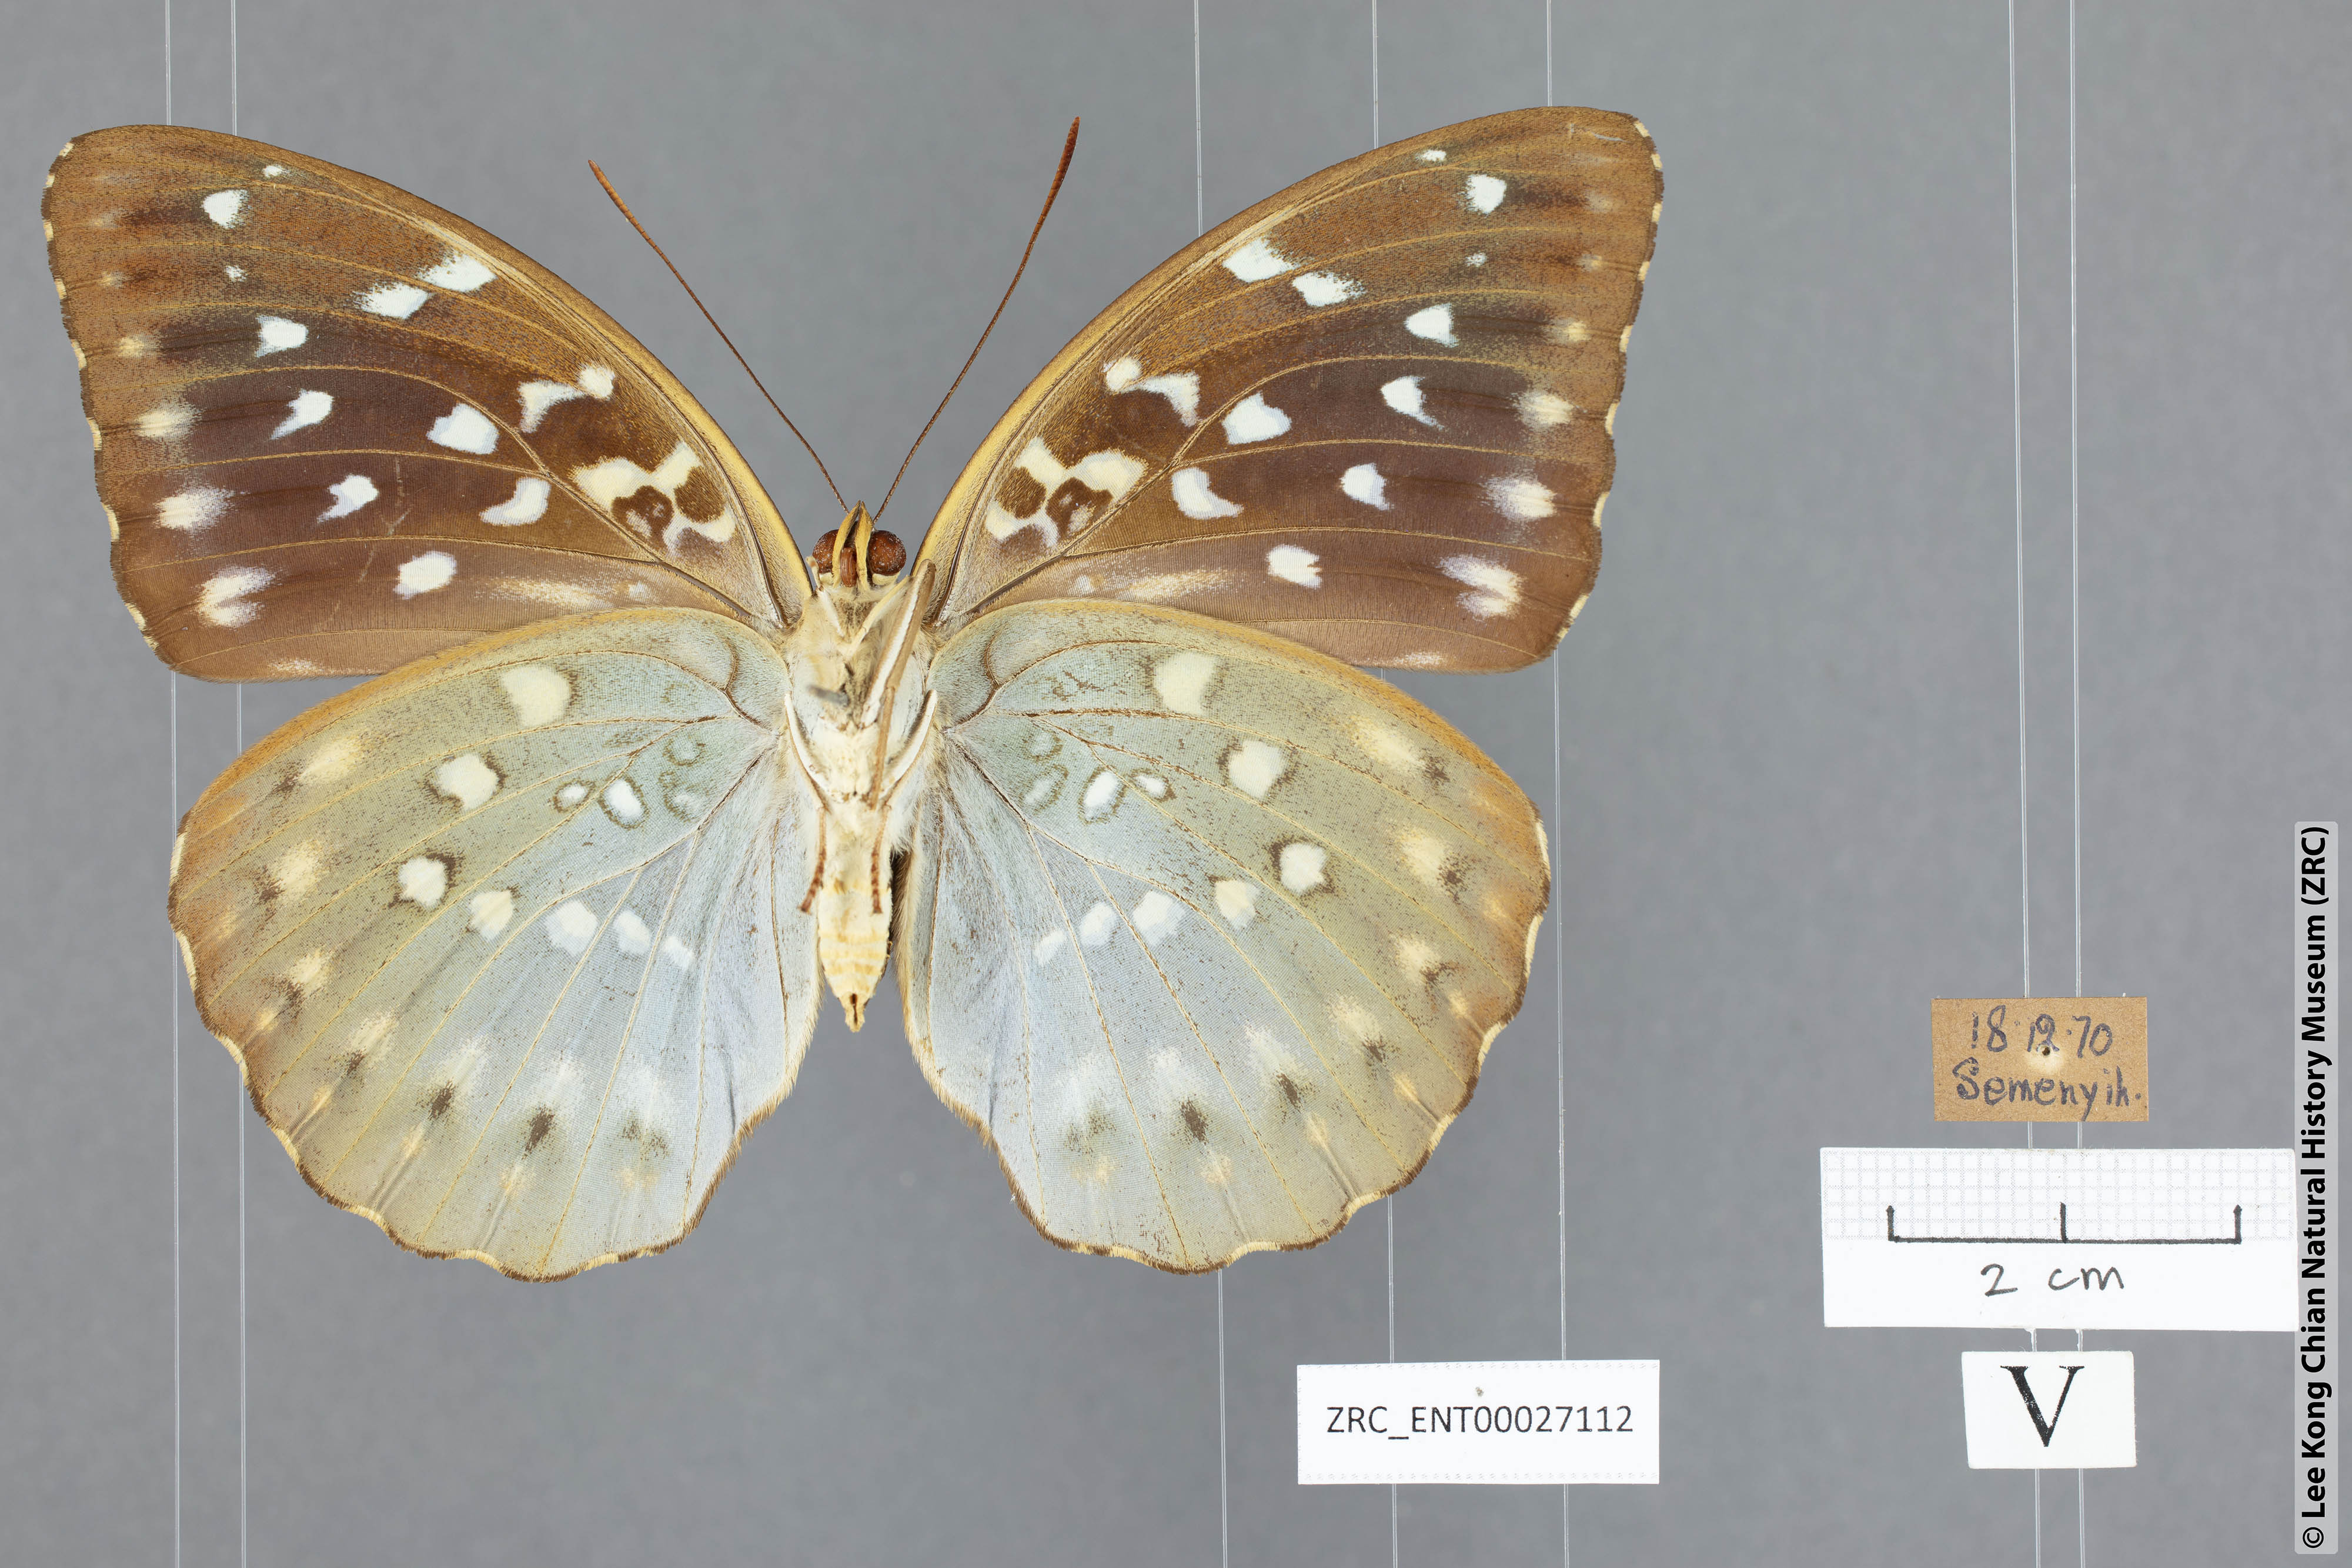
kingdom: Animalia
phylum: Arthropoda
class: Insecta
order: Lepidoptera
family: Nymphalidae
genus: Lexias
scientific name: Lexias dirtea
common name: Black-tipped archduke
